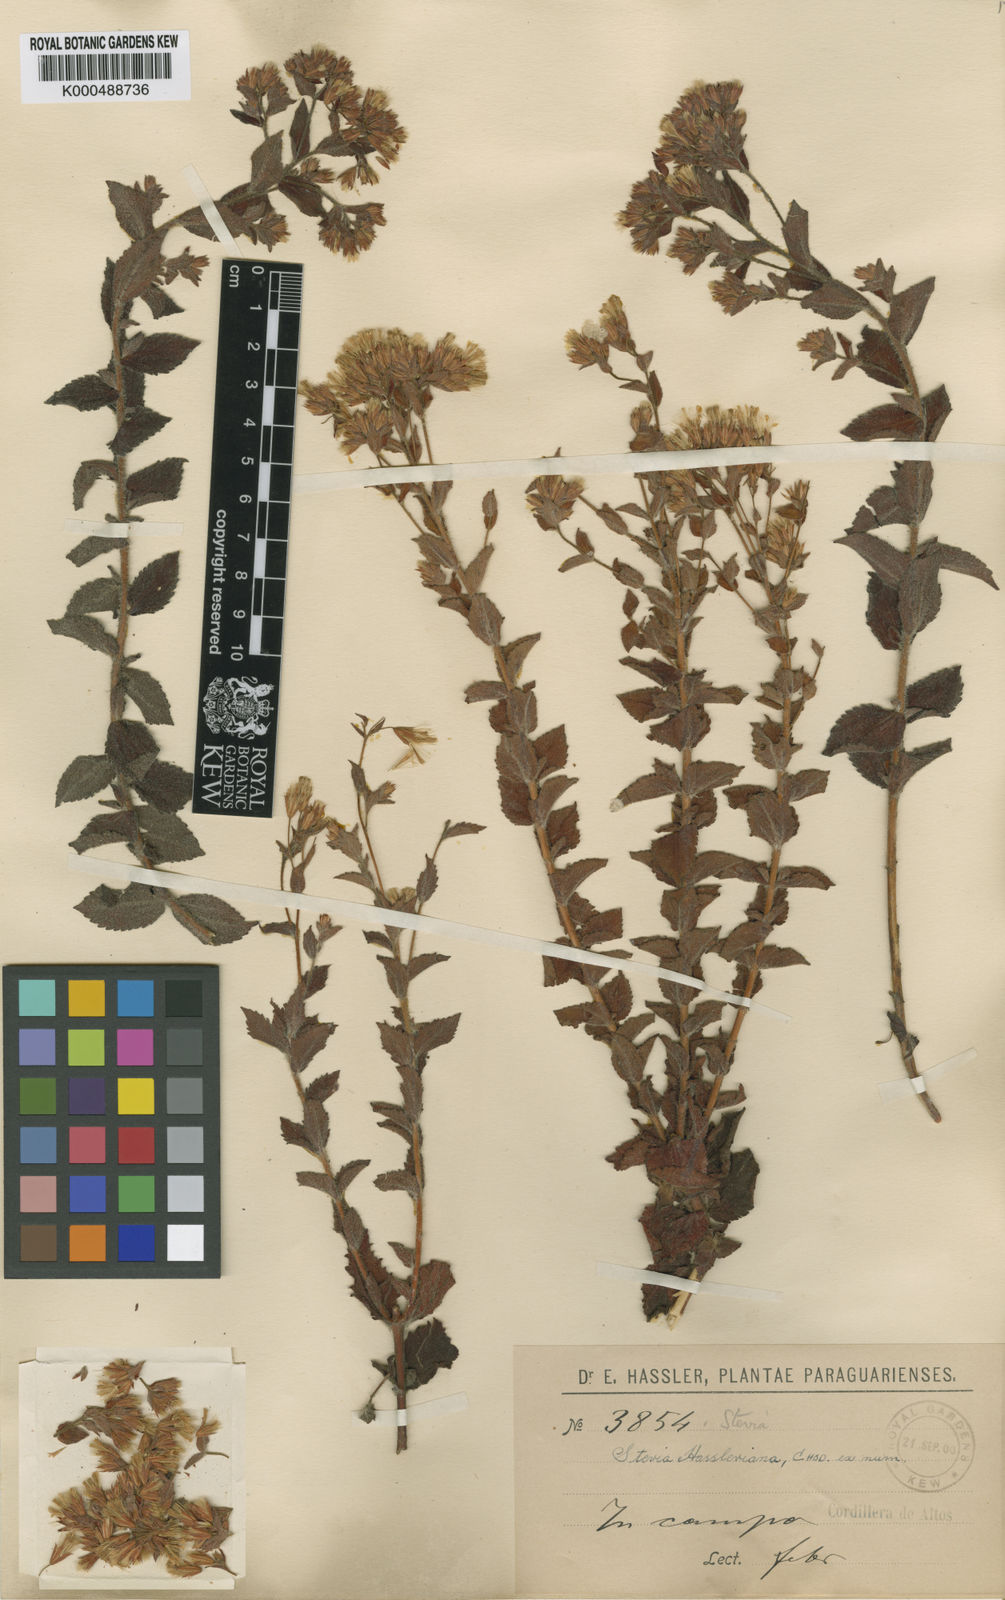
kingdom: Plantae
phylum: Tracheophyta
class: Magnoliopsida
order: Asterales
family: Asteraceae
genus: Stevia
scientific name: Stevia balansae
